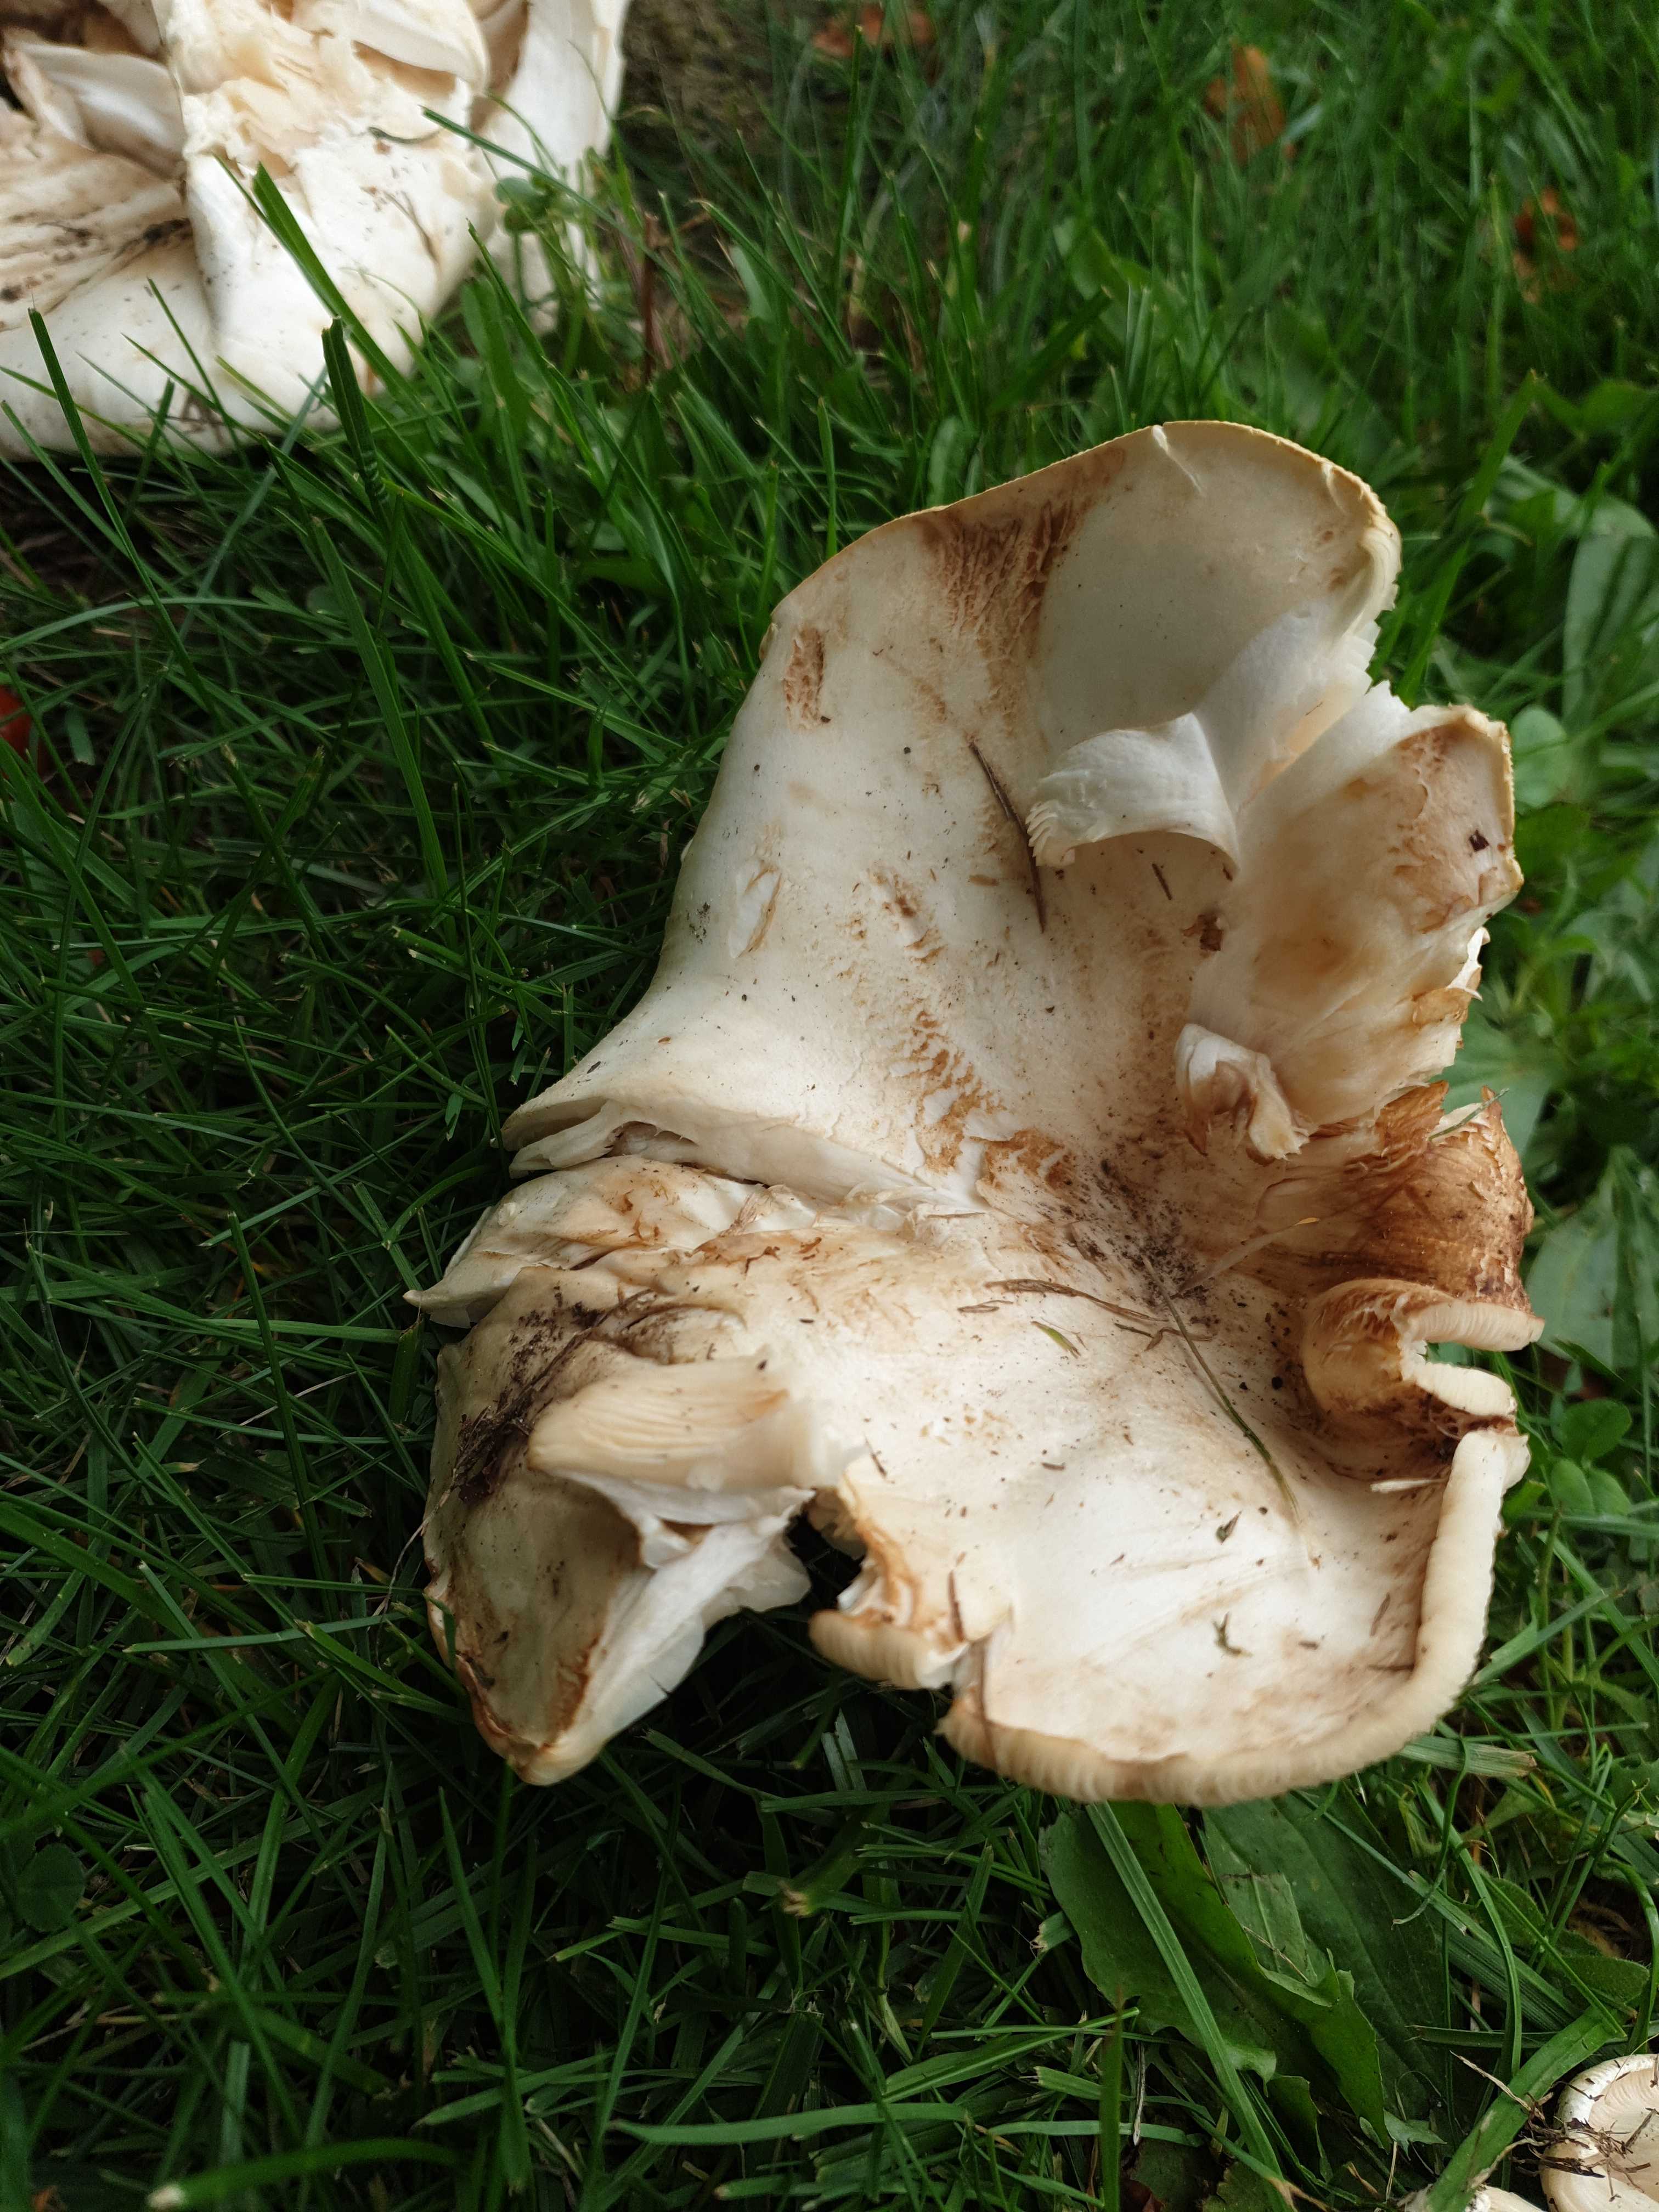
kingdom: Fungi
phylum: Basidiomycota
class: Agaricomycetes
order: Agaricales
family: Tricholomataceae
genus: Aspropaxillus
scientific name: Aspropaxillus giganteus
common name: kæmpe-tragtridderhat
